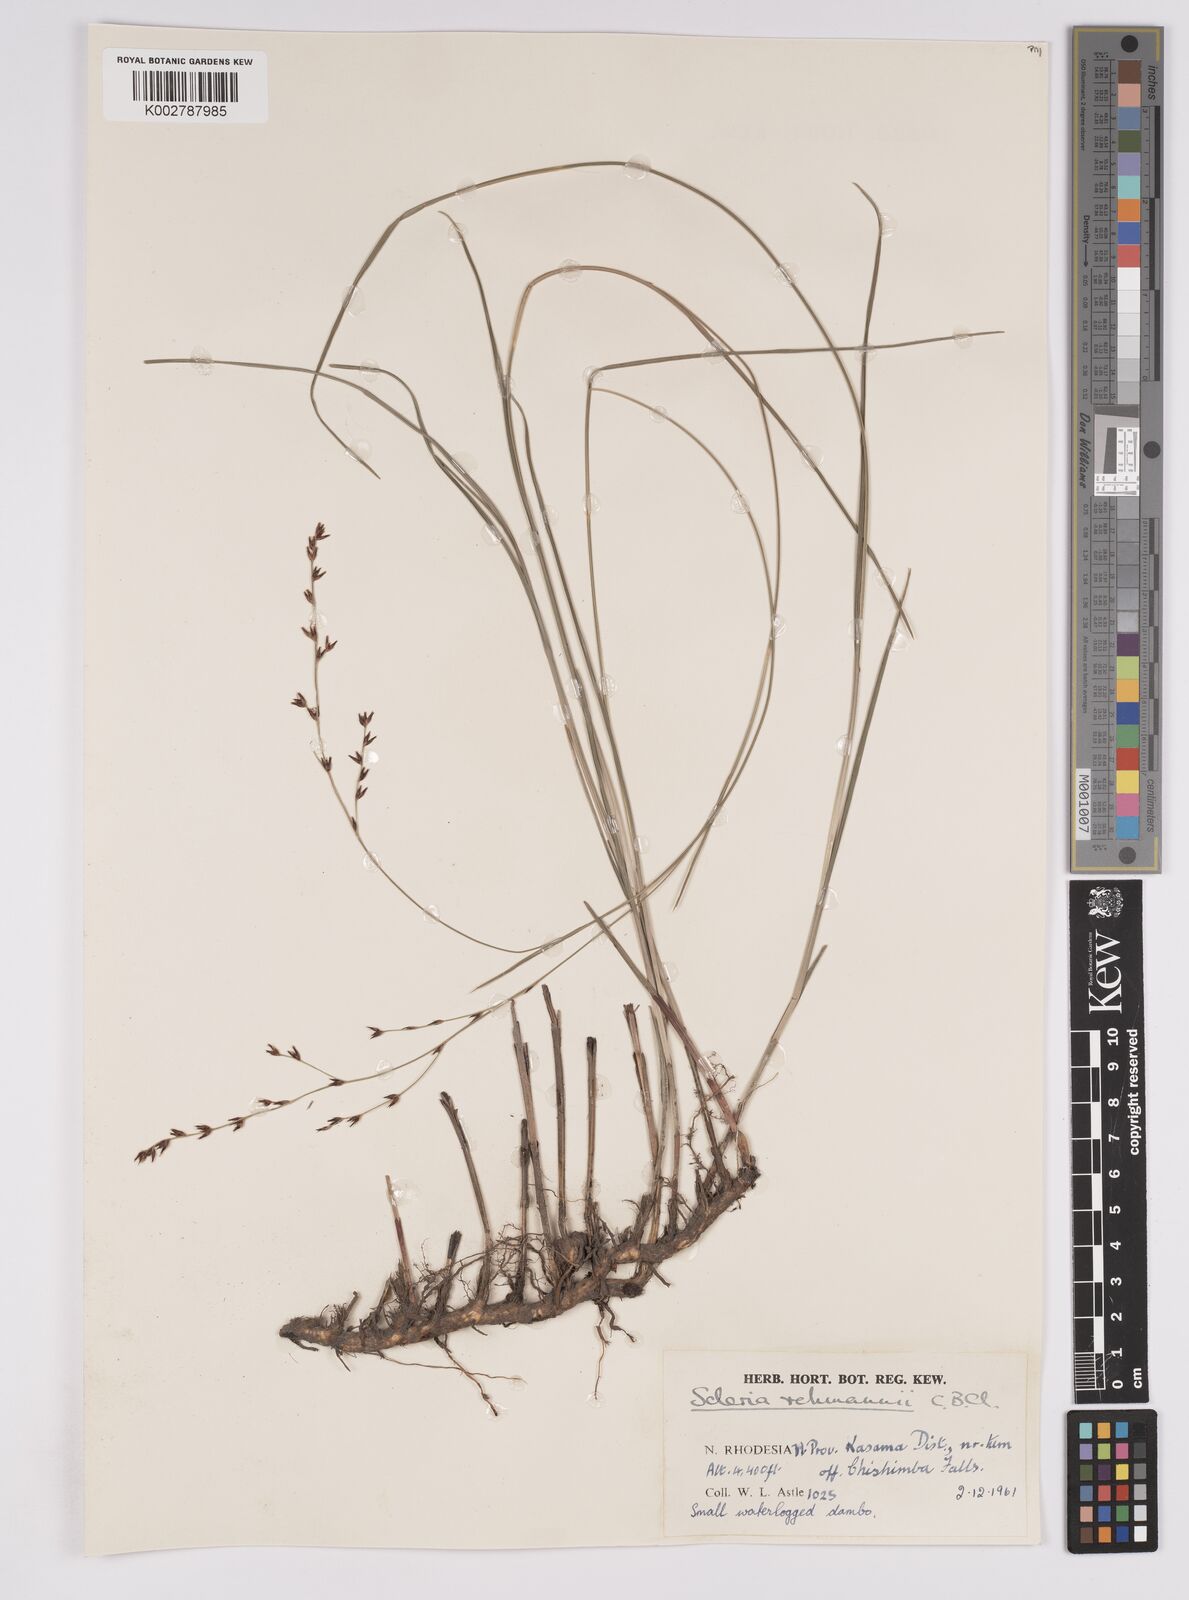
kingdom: Plantae
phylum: Tracheophyta
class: Liliopsida
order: Poales
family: Cyperaceae
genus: Scleria
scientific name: Scleria rehmannii
